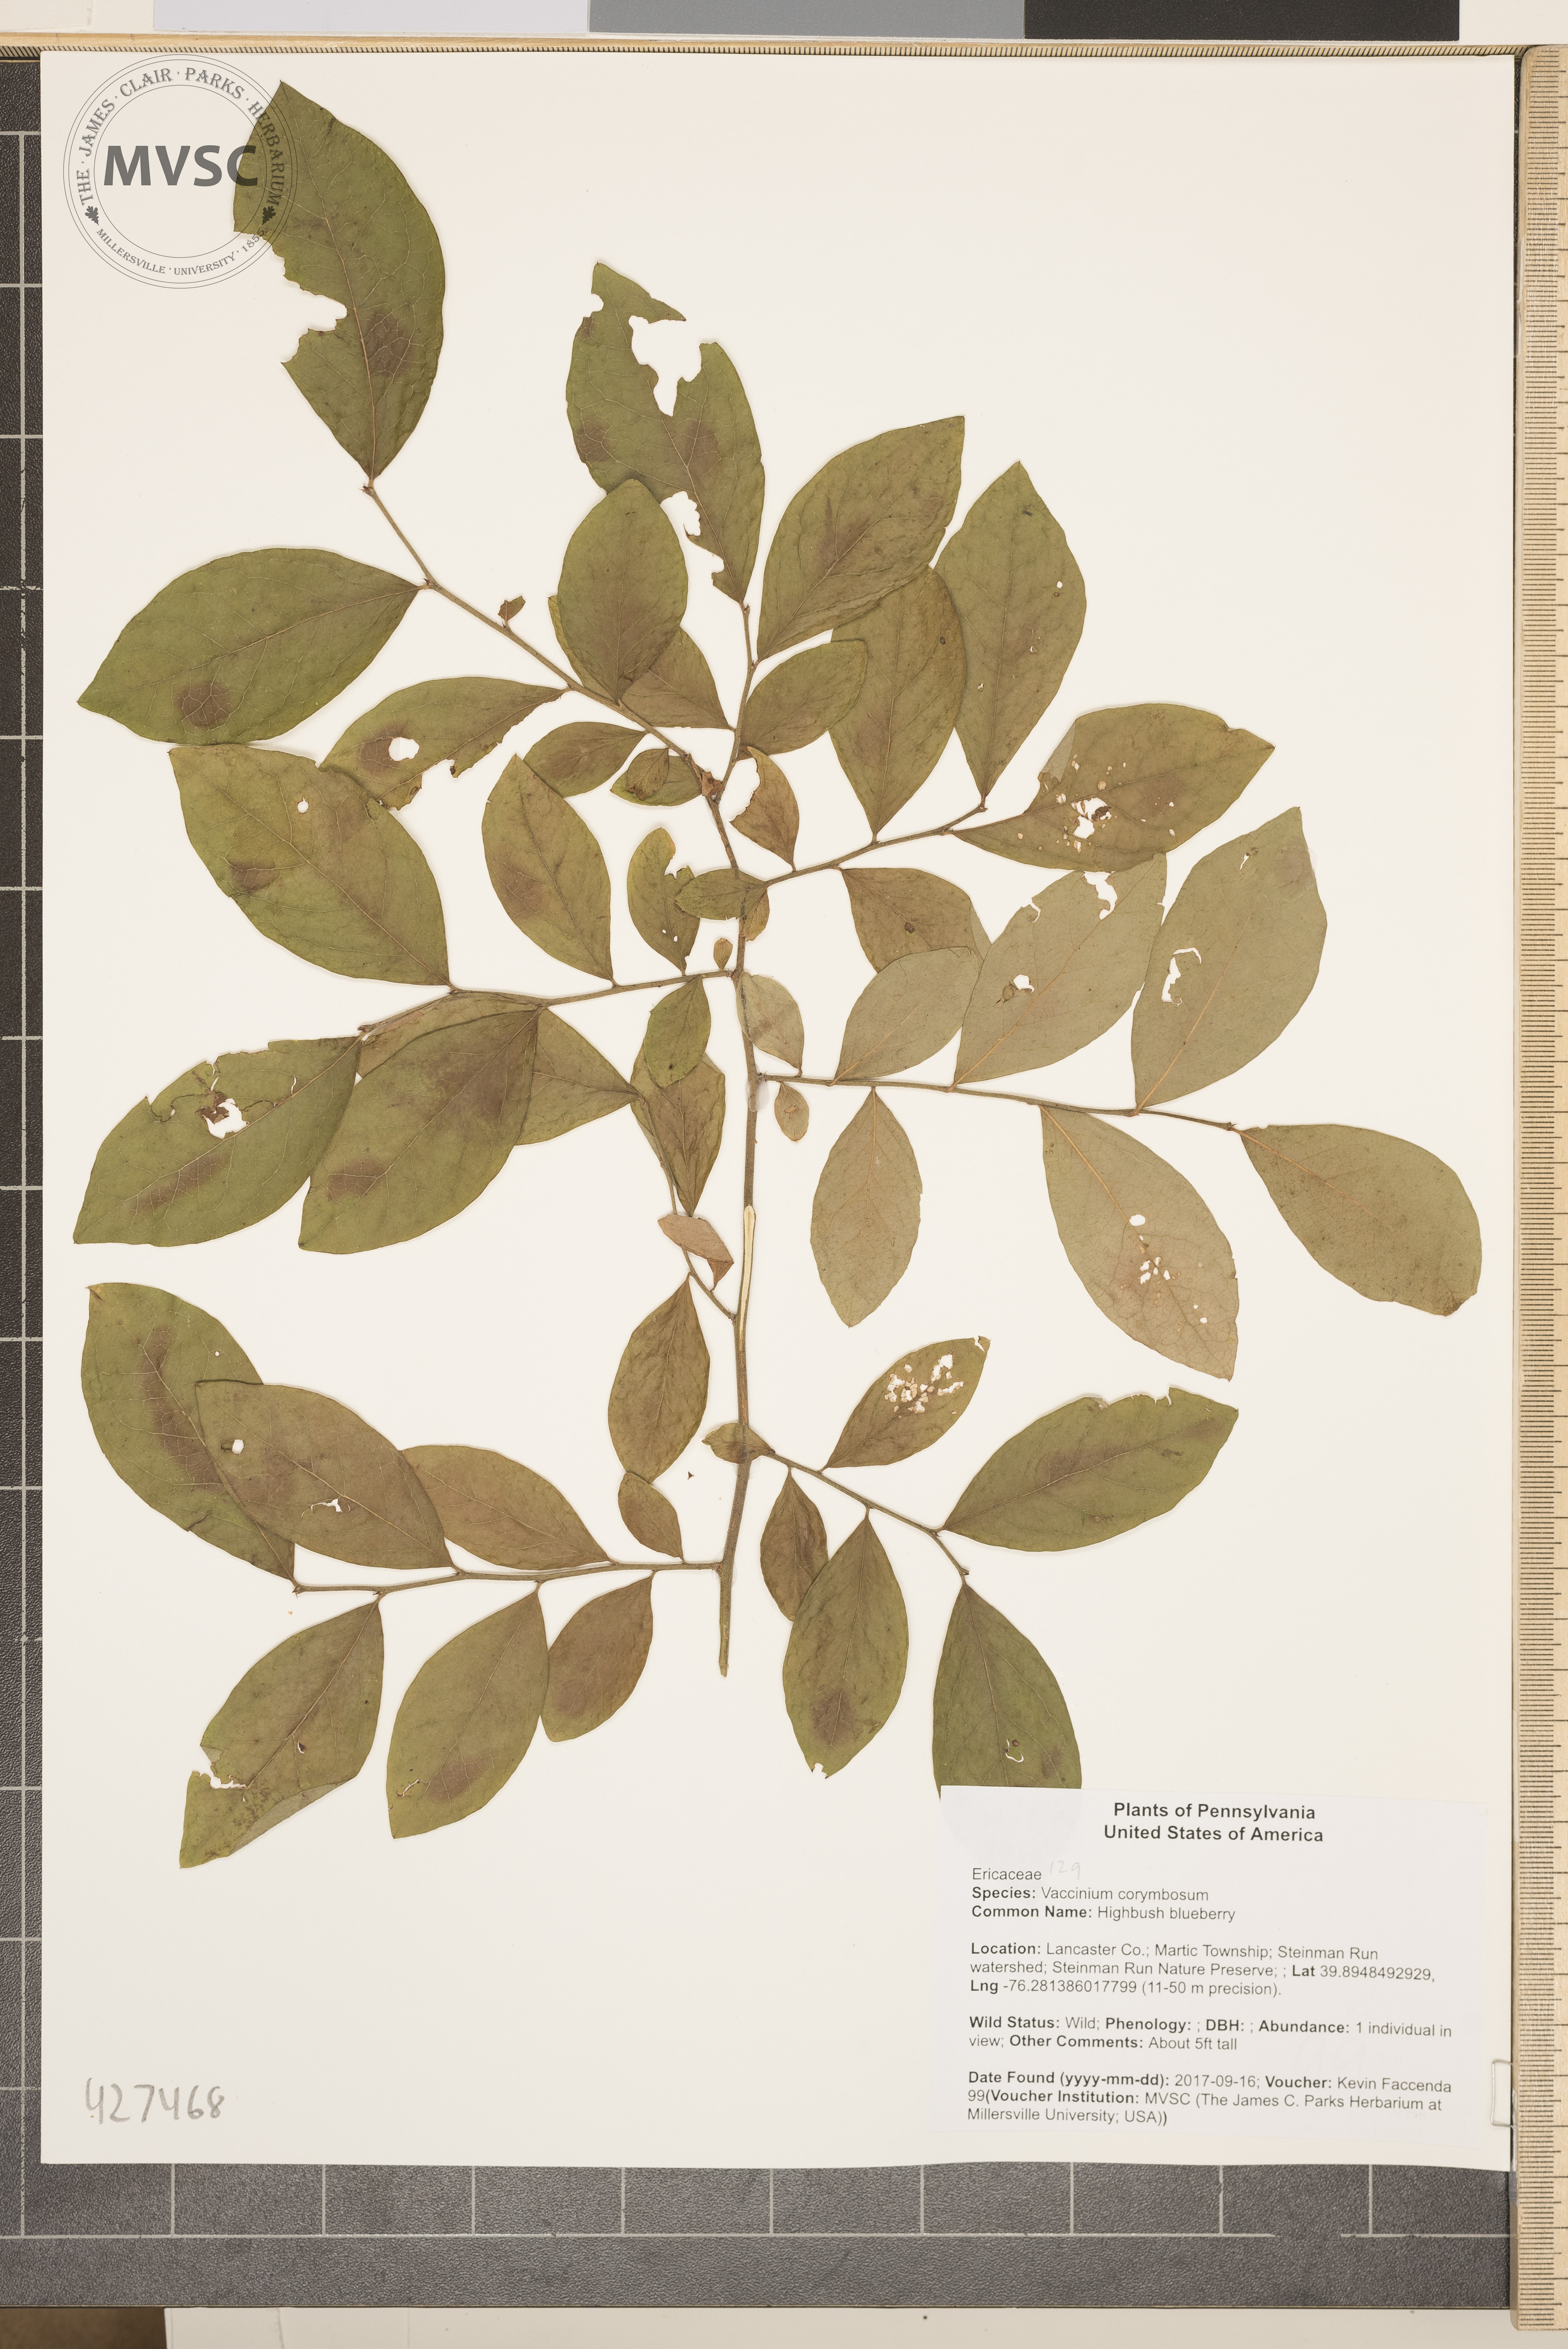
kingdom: Plantae
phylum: Tracheophyta
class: Magnoliopsida
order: Ericales
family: Ericaceae
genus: Vaccinium
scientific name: Vaccinium corymbosum
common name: Highbush blueberry
